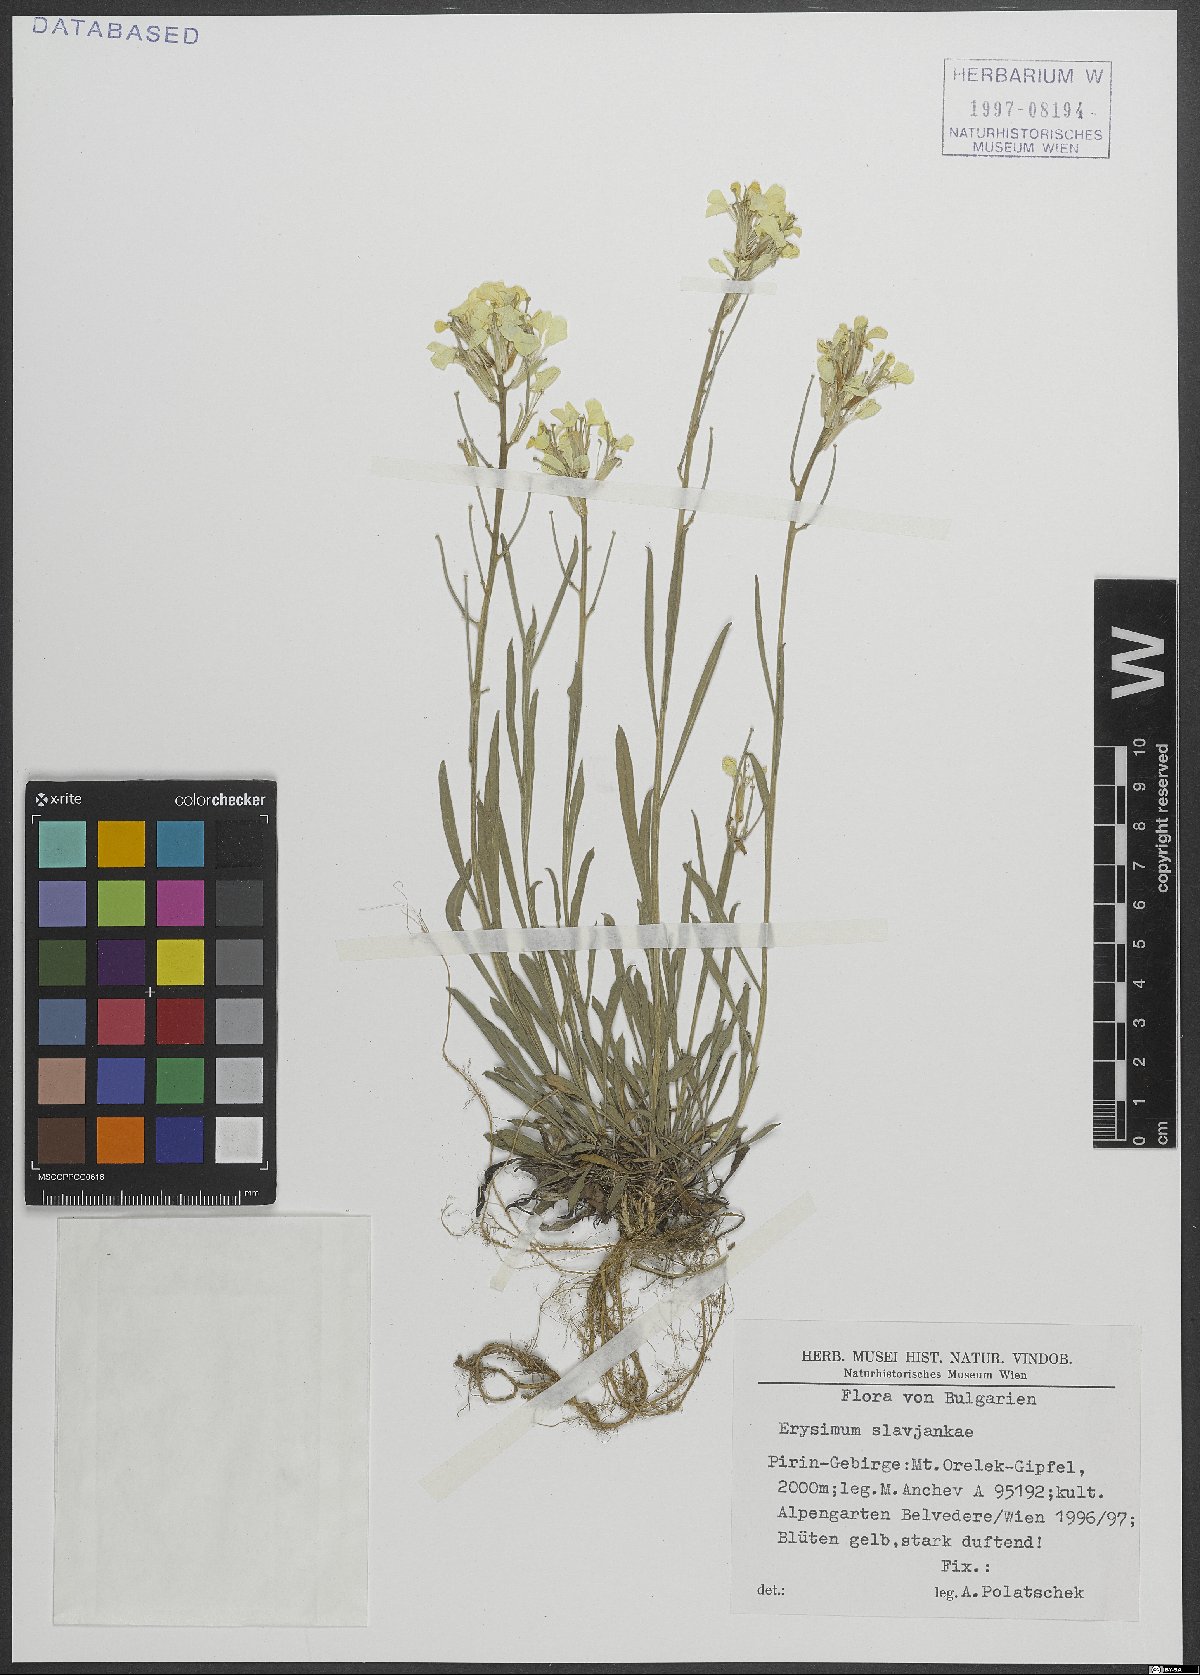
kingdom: Plantae
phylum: Tracheophyta
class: Magnoliopsida
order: Brassicales
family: Brassicaceae
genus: Erysimum
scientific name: Erysimum slavjankae
